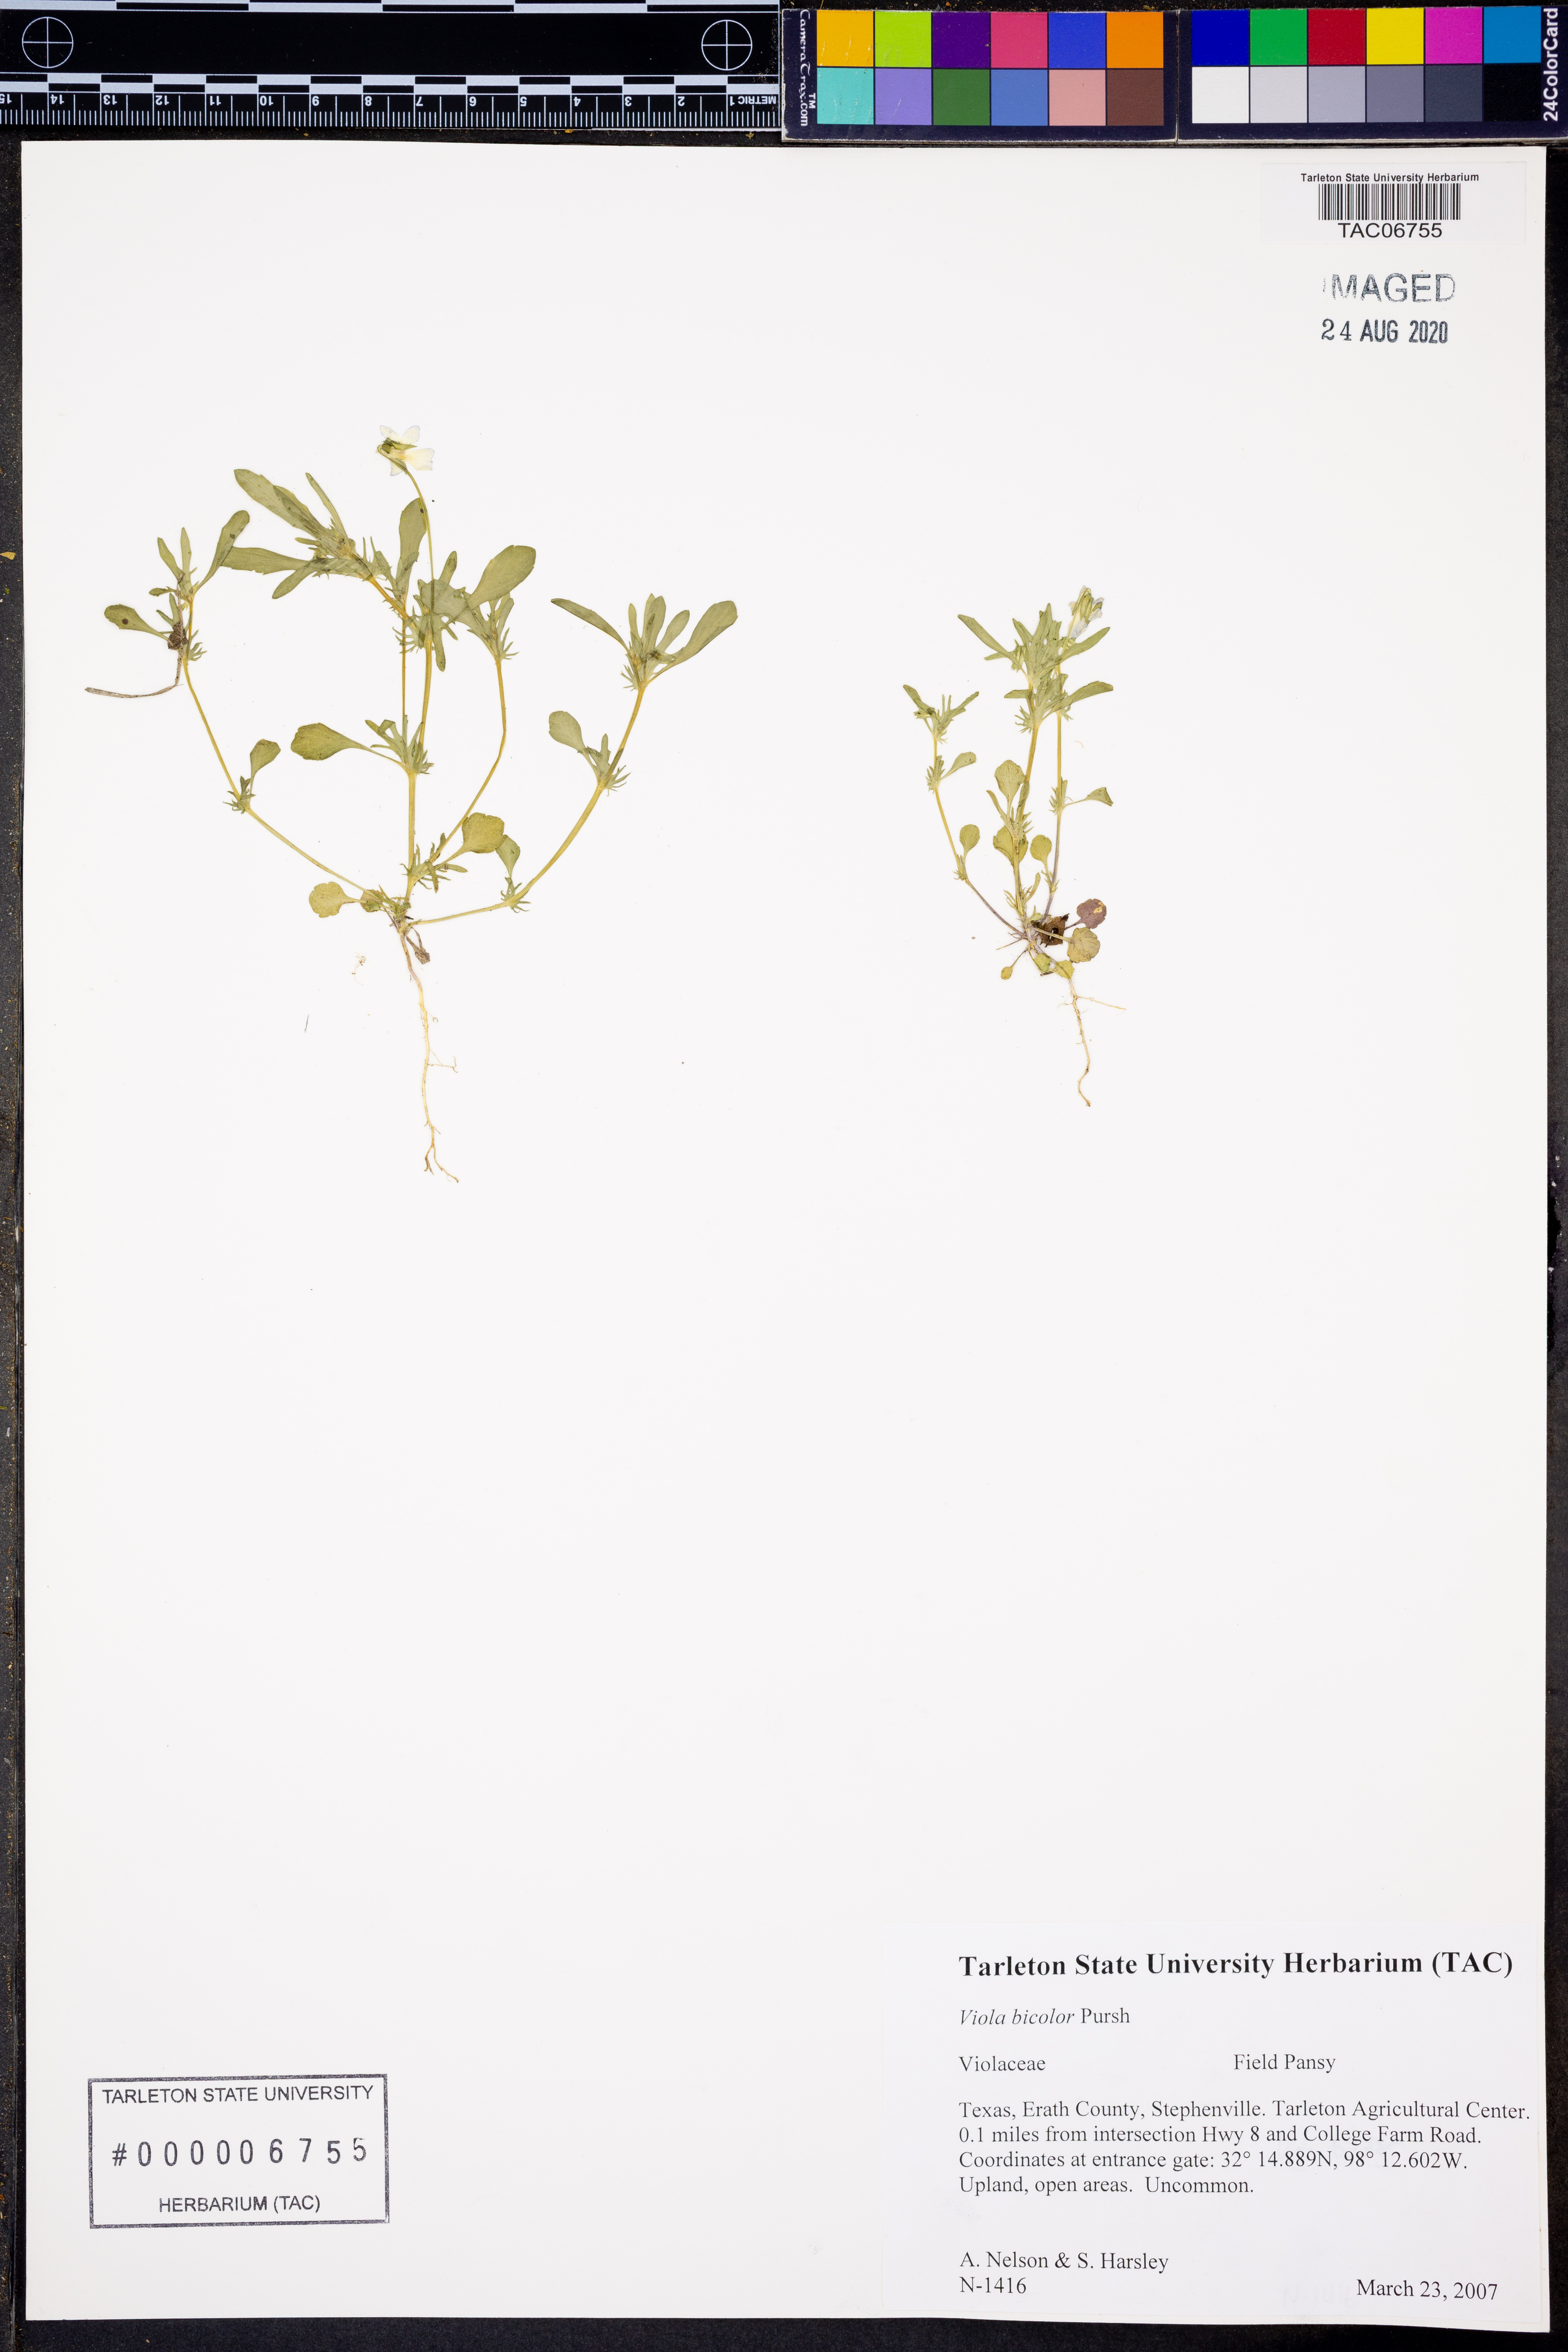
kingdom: Plantae
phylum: Tracheophyta
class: Magnoliopsida
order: Malpighiales
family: Violaceae
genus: Viola
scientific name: Viola rafinesquei
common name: American field pansy
